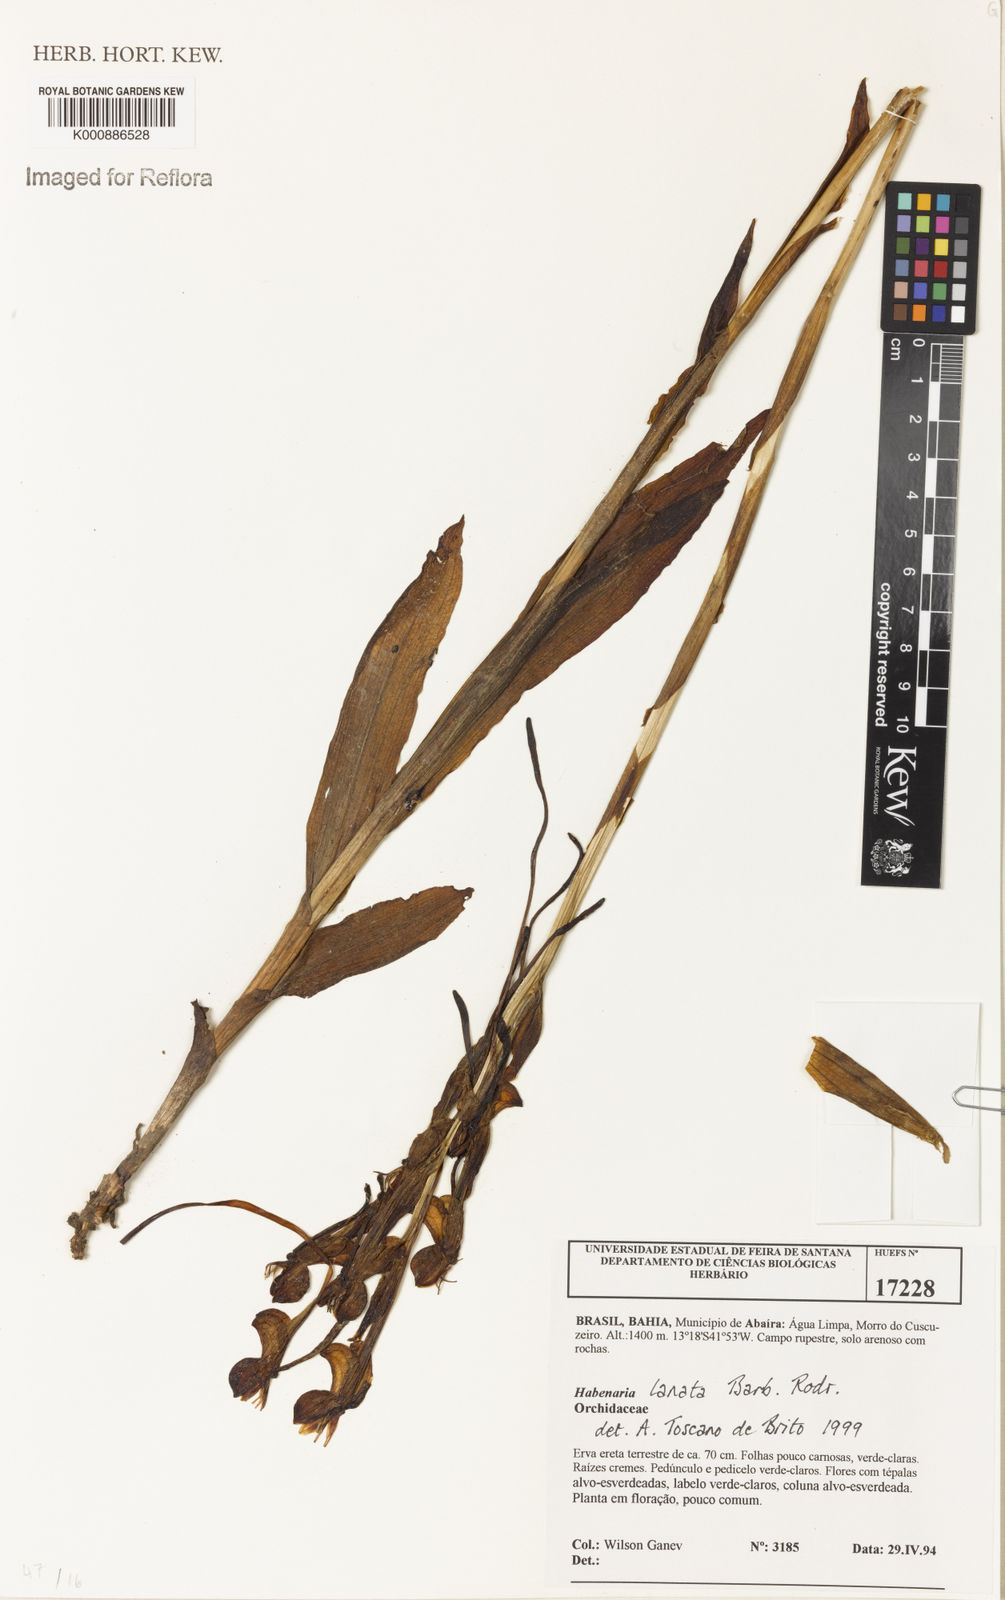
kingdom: Plantae
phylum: Tracheophyta
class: Liliopsida
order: Asparagales
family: Orchidaceae
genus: Habenaria
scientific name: Habenaria
